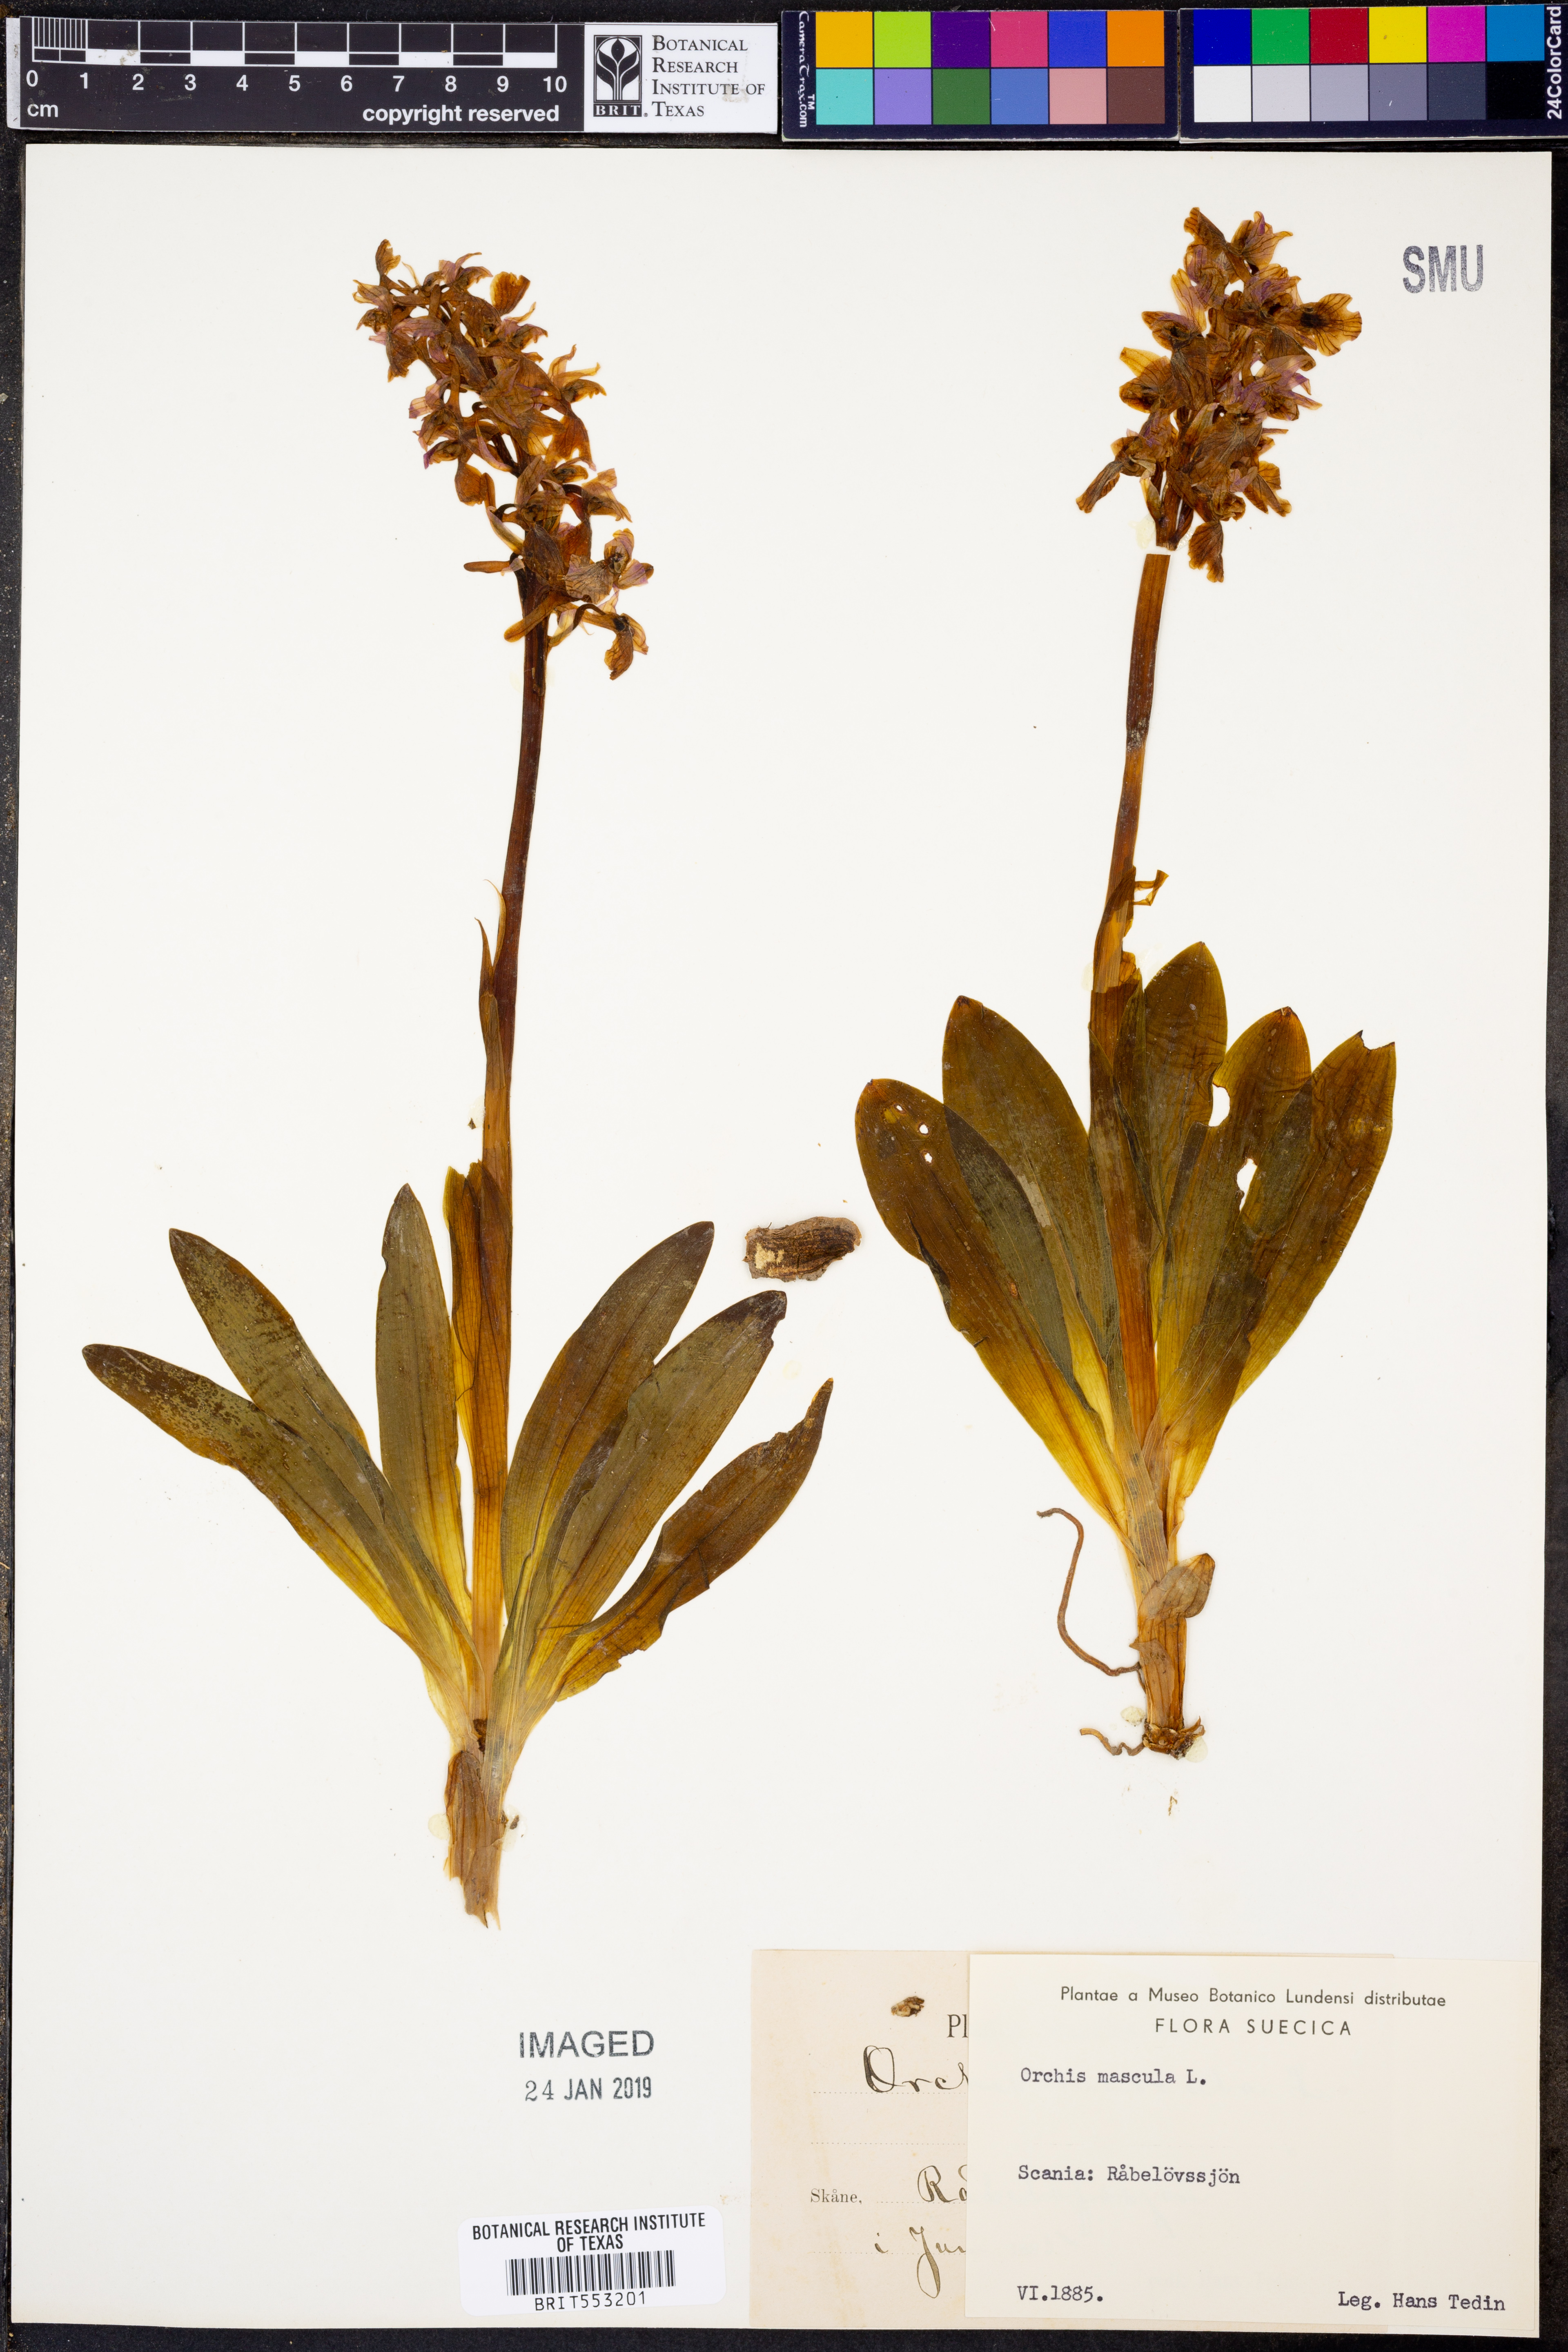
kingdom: Plantae
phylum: Tracheophyta
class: Liliopsida
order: Asparagales
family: Orchidaceae
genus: Orchis
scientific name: Orchis mascula
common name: Early-purple orchid
